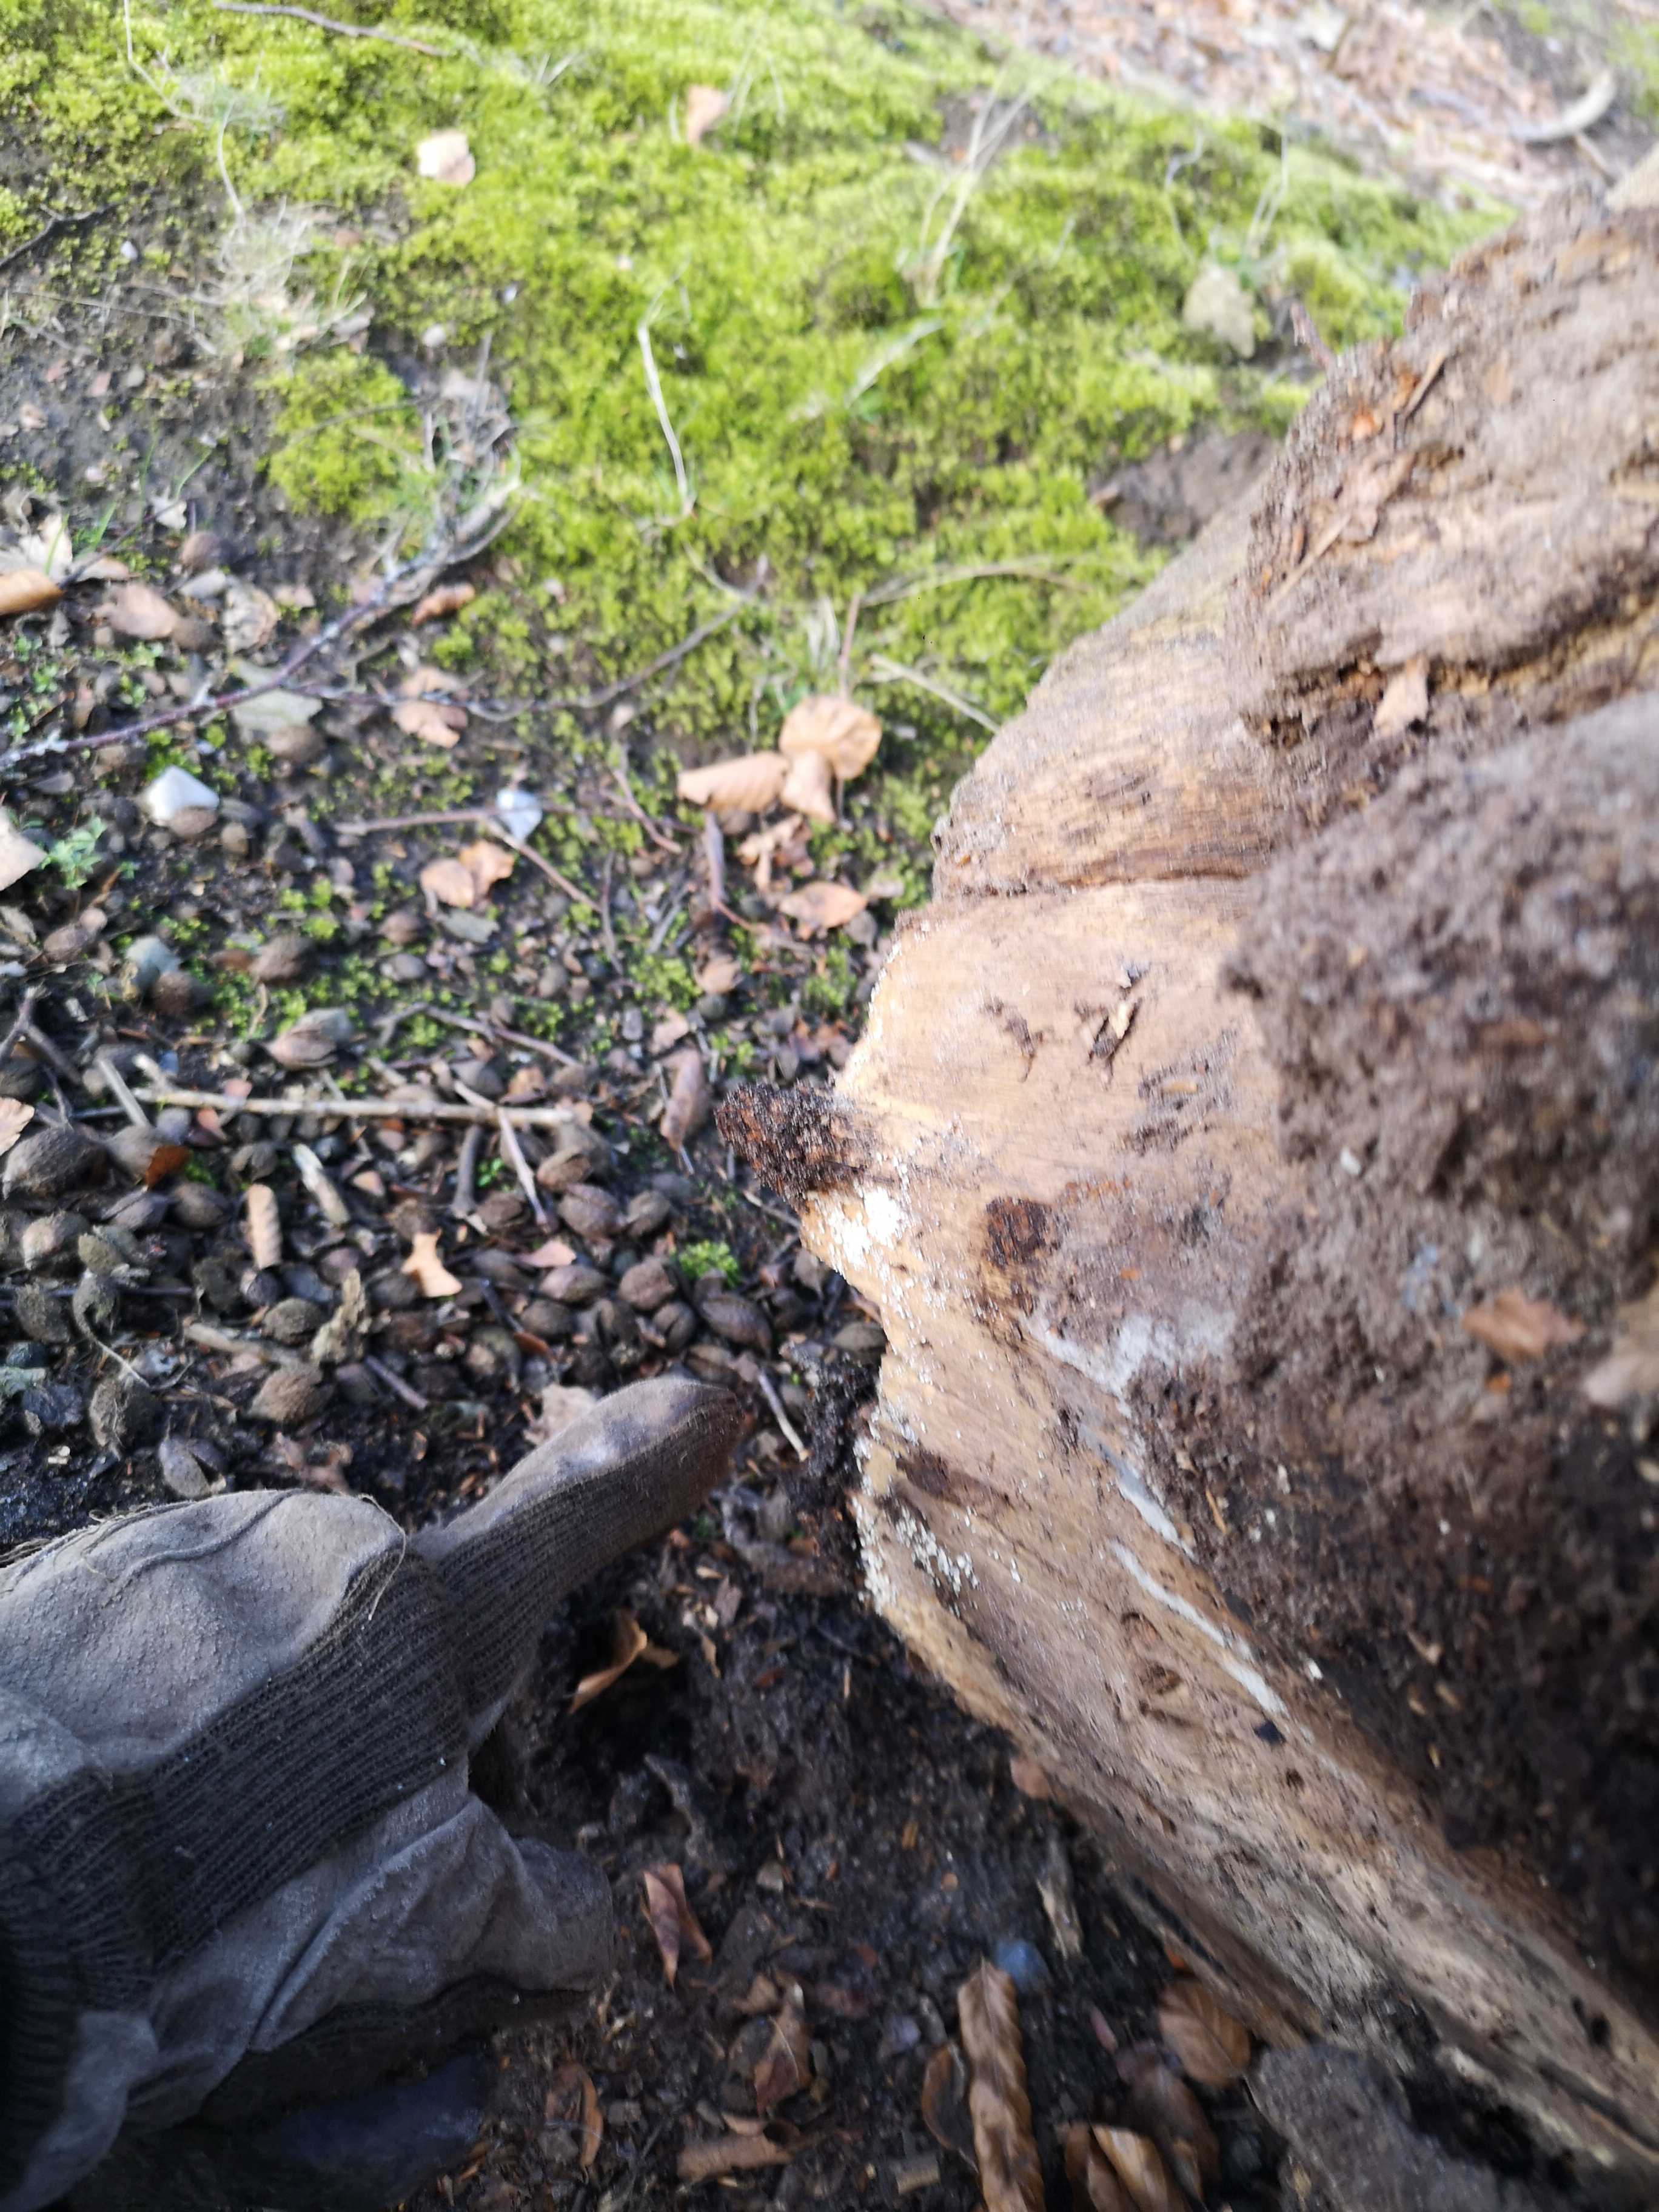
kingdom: Fungi
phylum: Ascomycota
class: Leotiomycetes
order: Helotiales
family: Lachnaceae
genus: Lachnum
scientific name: Lachnum
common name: frynseskive
